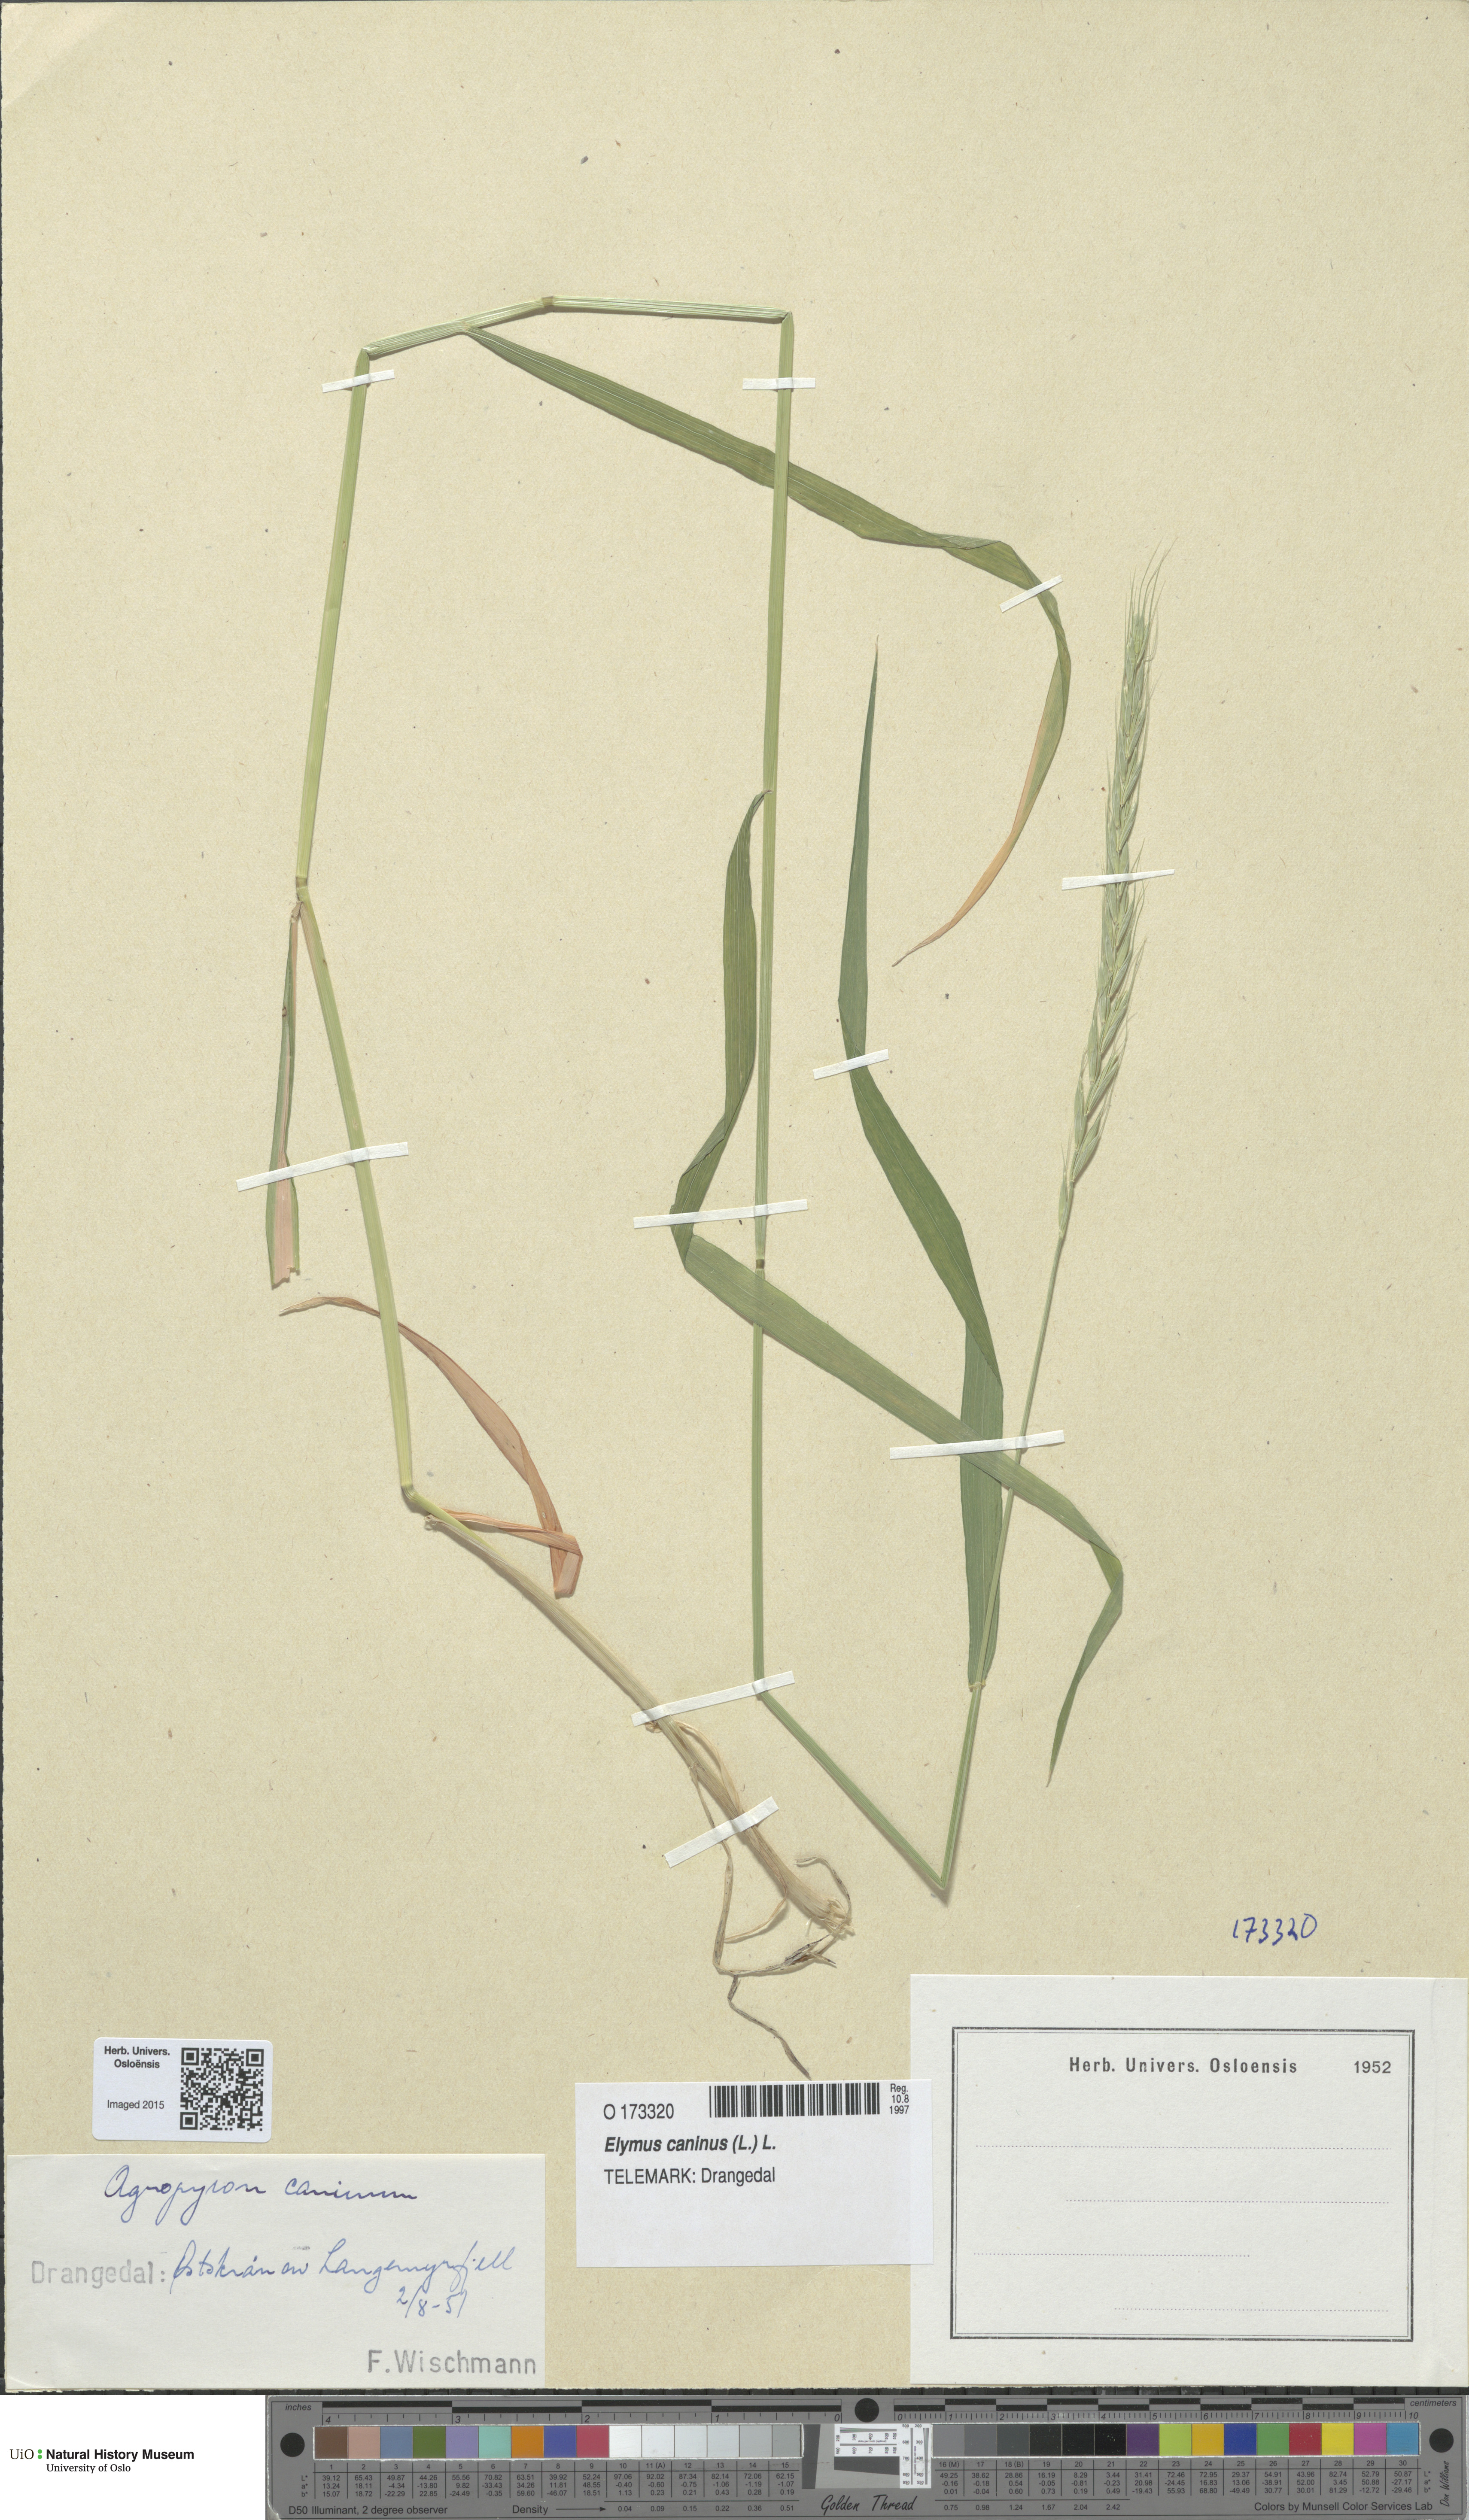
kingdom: Plantae
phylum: Tracheophyta
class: Liliopsida
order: Poales
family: Poaceae
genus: Elymus
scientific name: Elymus caninus
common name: Bearded couch
